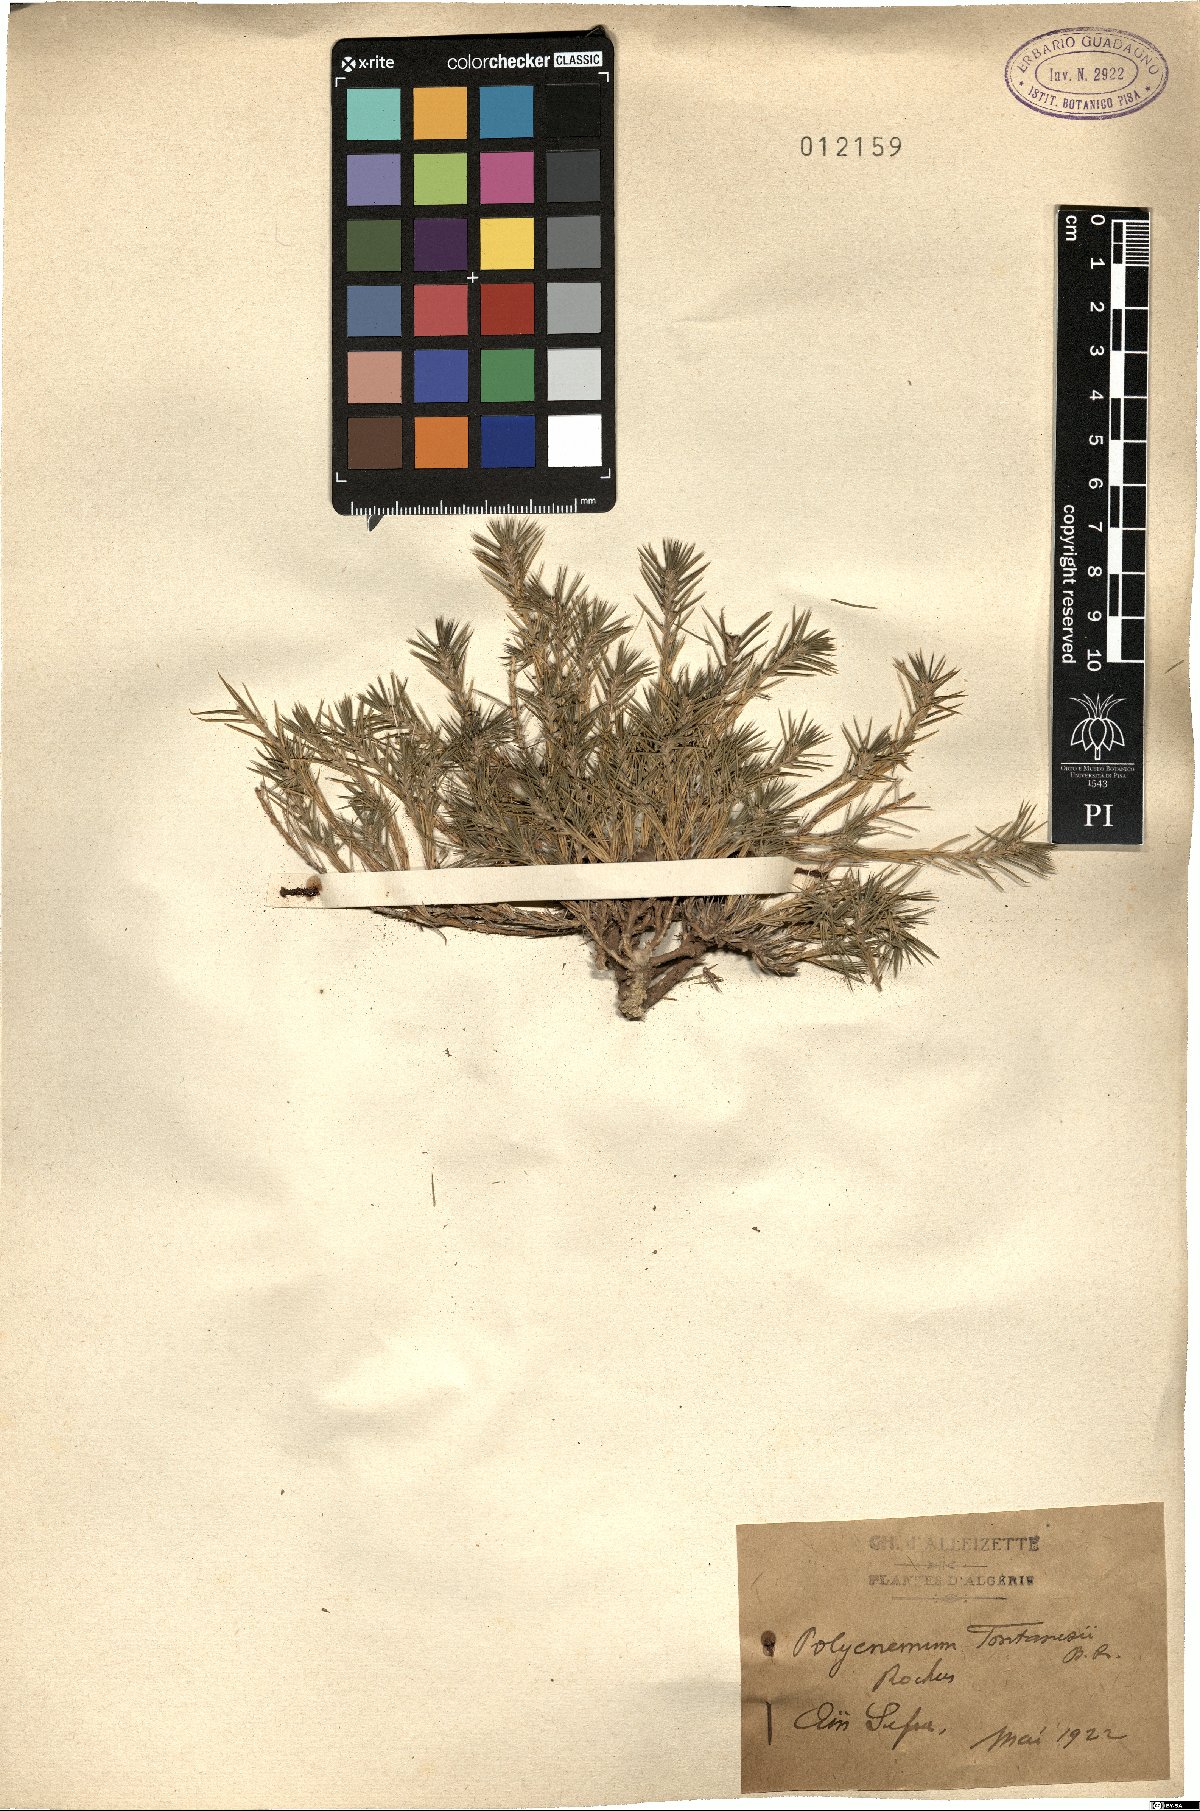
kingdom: Plantae
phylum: Tracheophyta
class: Magnoliopsida
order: Caryophyllales
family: Amaranthaceae
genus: Polycnemum
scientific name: Polycnemum fontanesii
